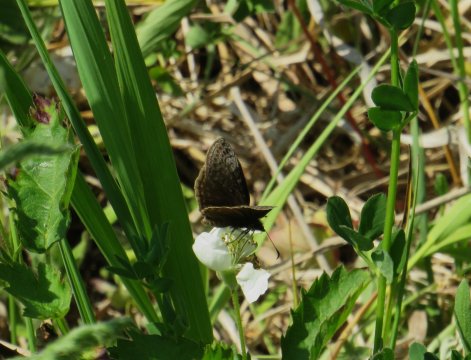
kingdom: Animalia
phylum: Arthropoda
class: Insecta
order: Lepidoptera
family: Hesperiidae
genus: Erynnis
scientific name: Erynnis icelus
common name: Dreamy Duskywing
